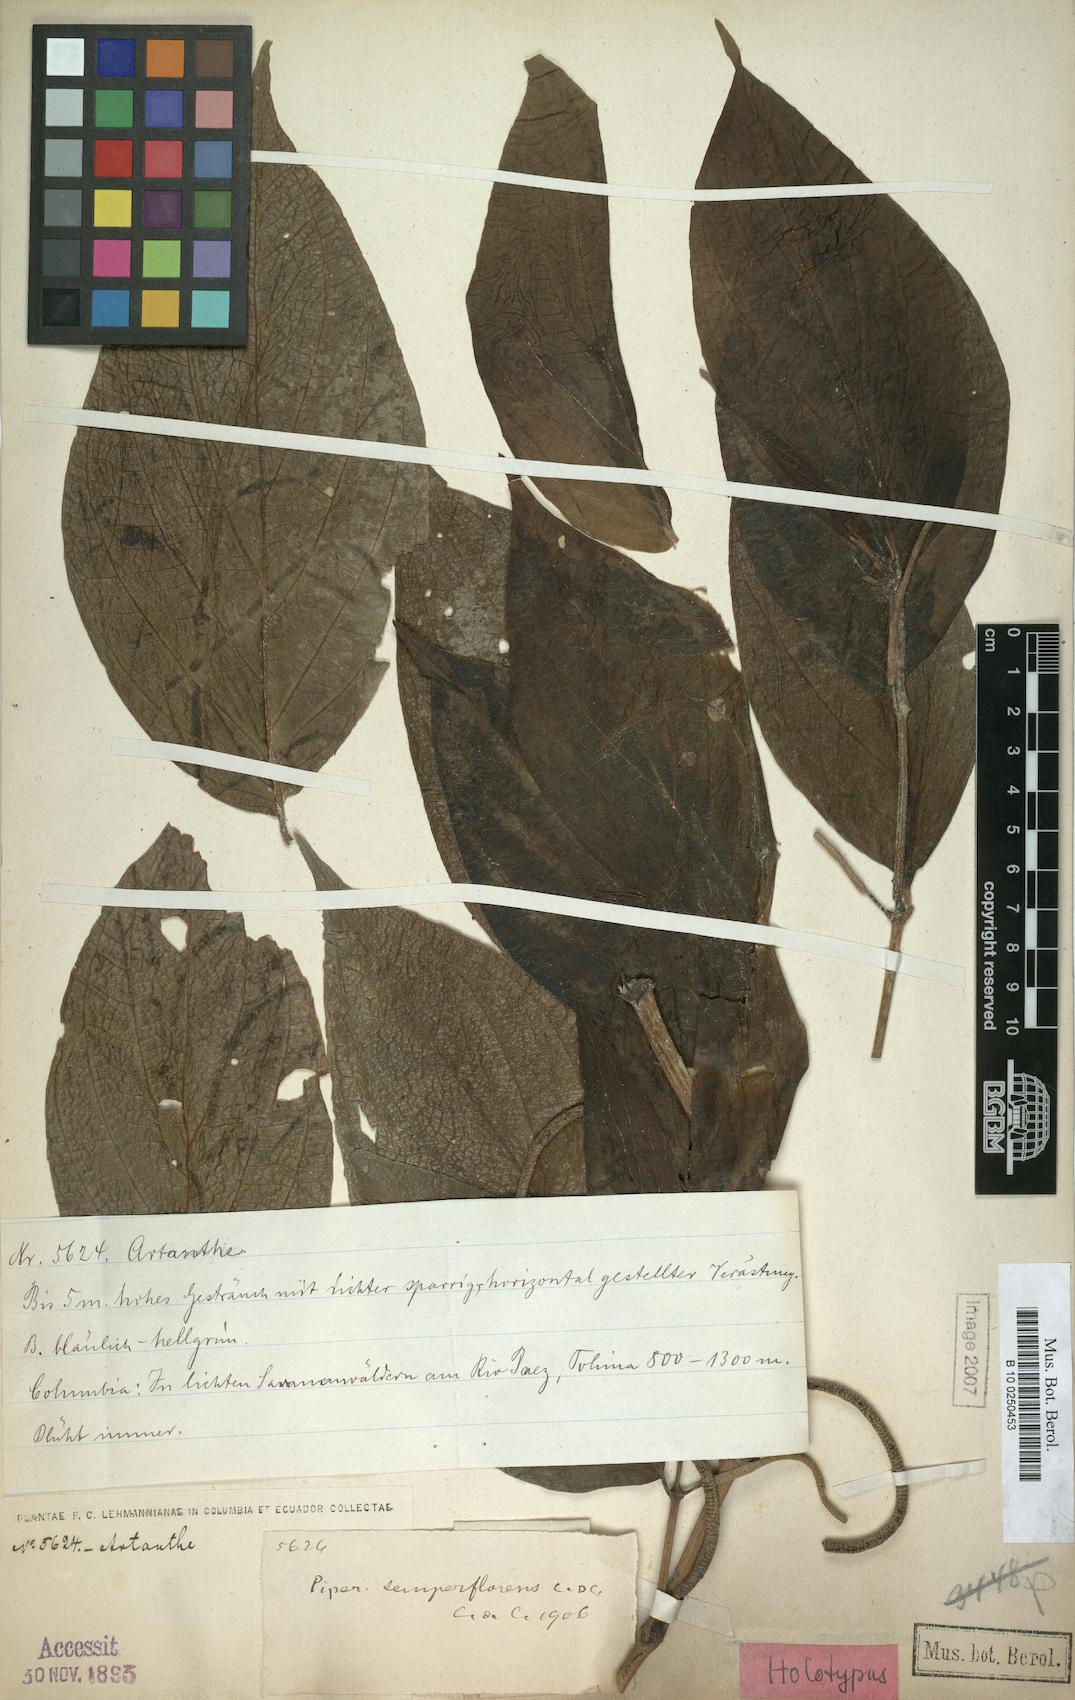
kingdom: Plantae
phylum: Tracheophyta
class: Magnoliopsida
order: Piperales
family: Piperaceae
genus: Piper
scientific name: Piper semperflorens
